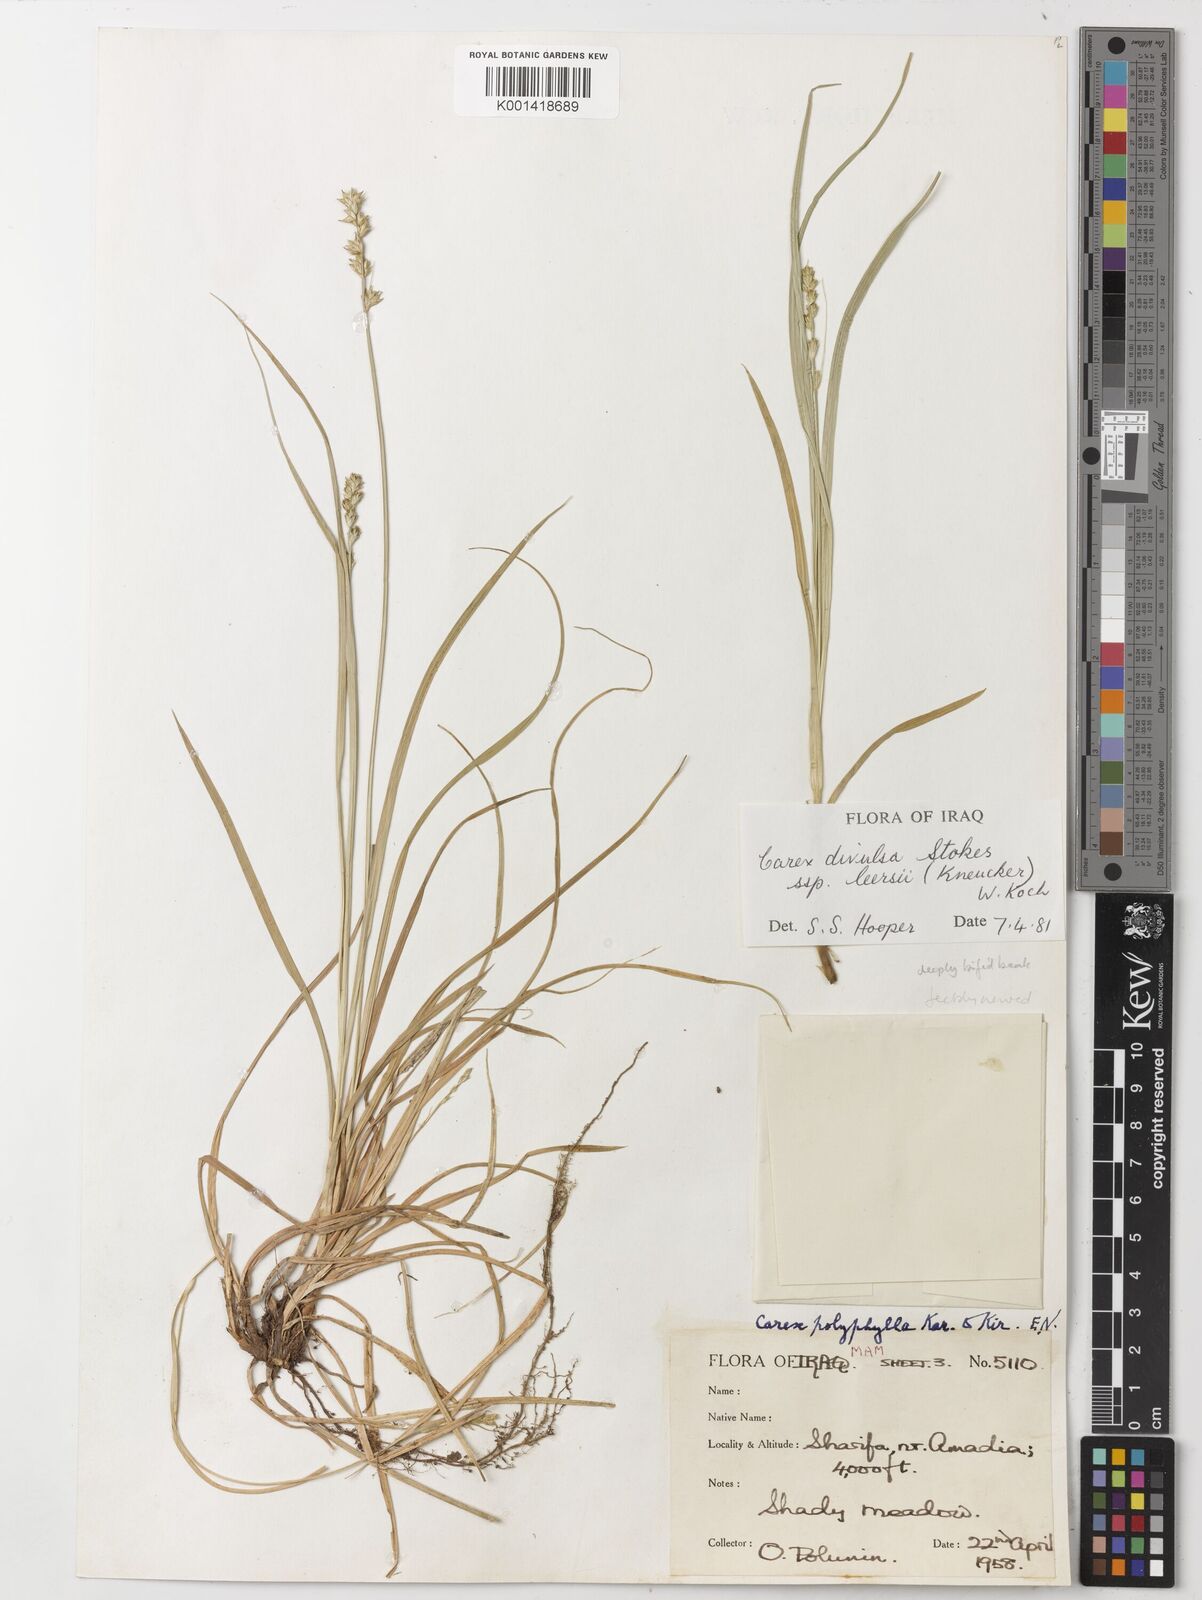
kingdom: Plantae
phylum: Tracheophyta
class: Liliopsida
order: Poales
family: Cyperaceae
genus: Carex
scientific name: Carex egorovae
